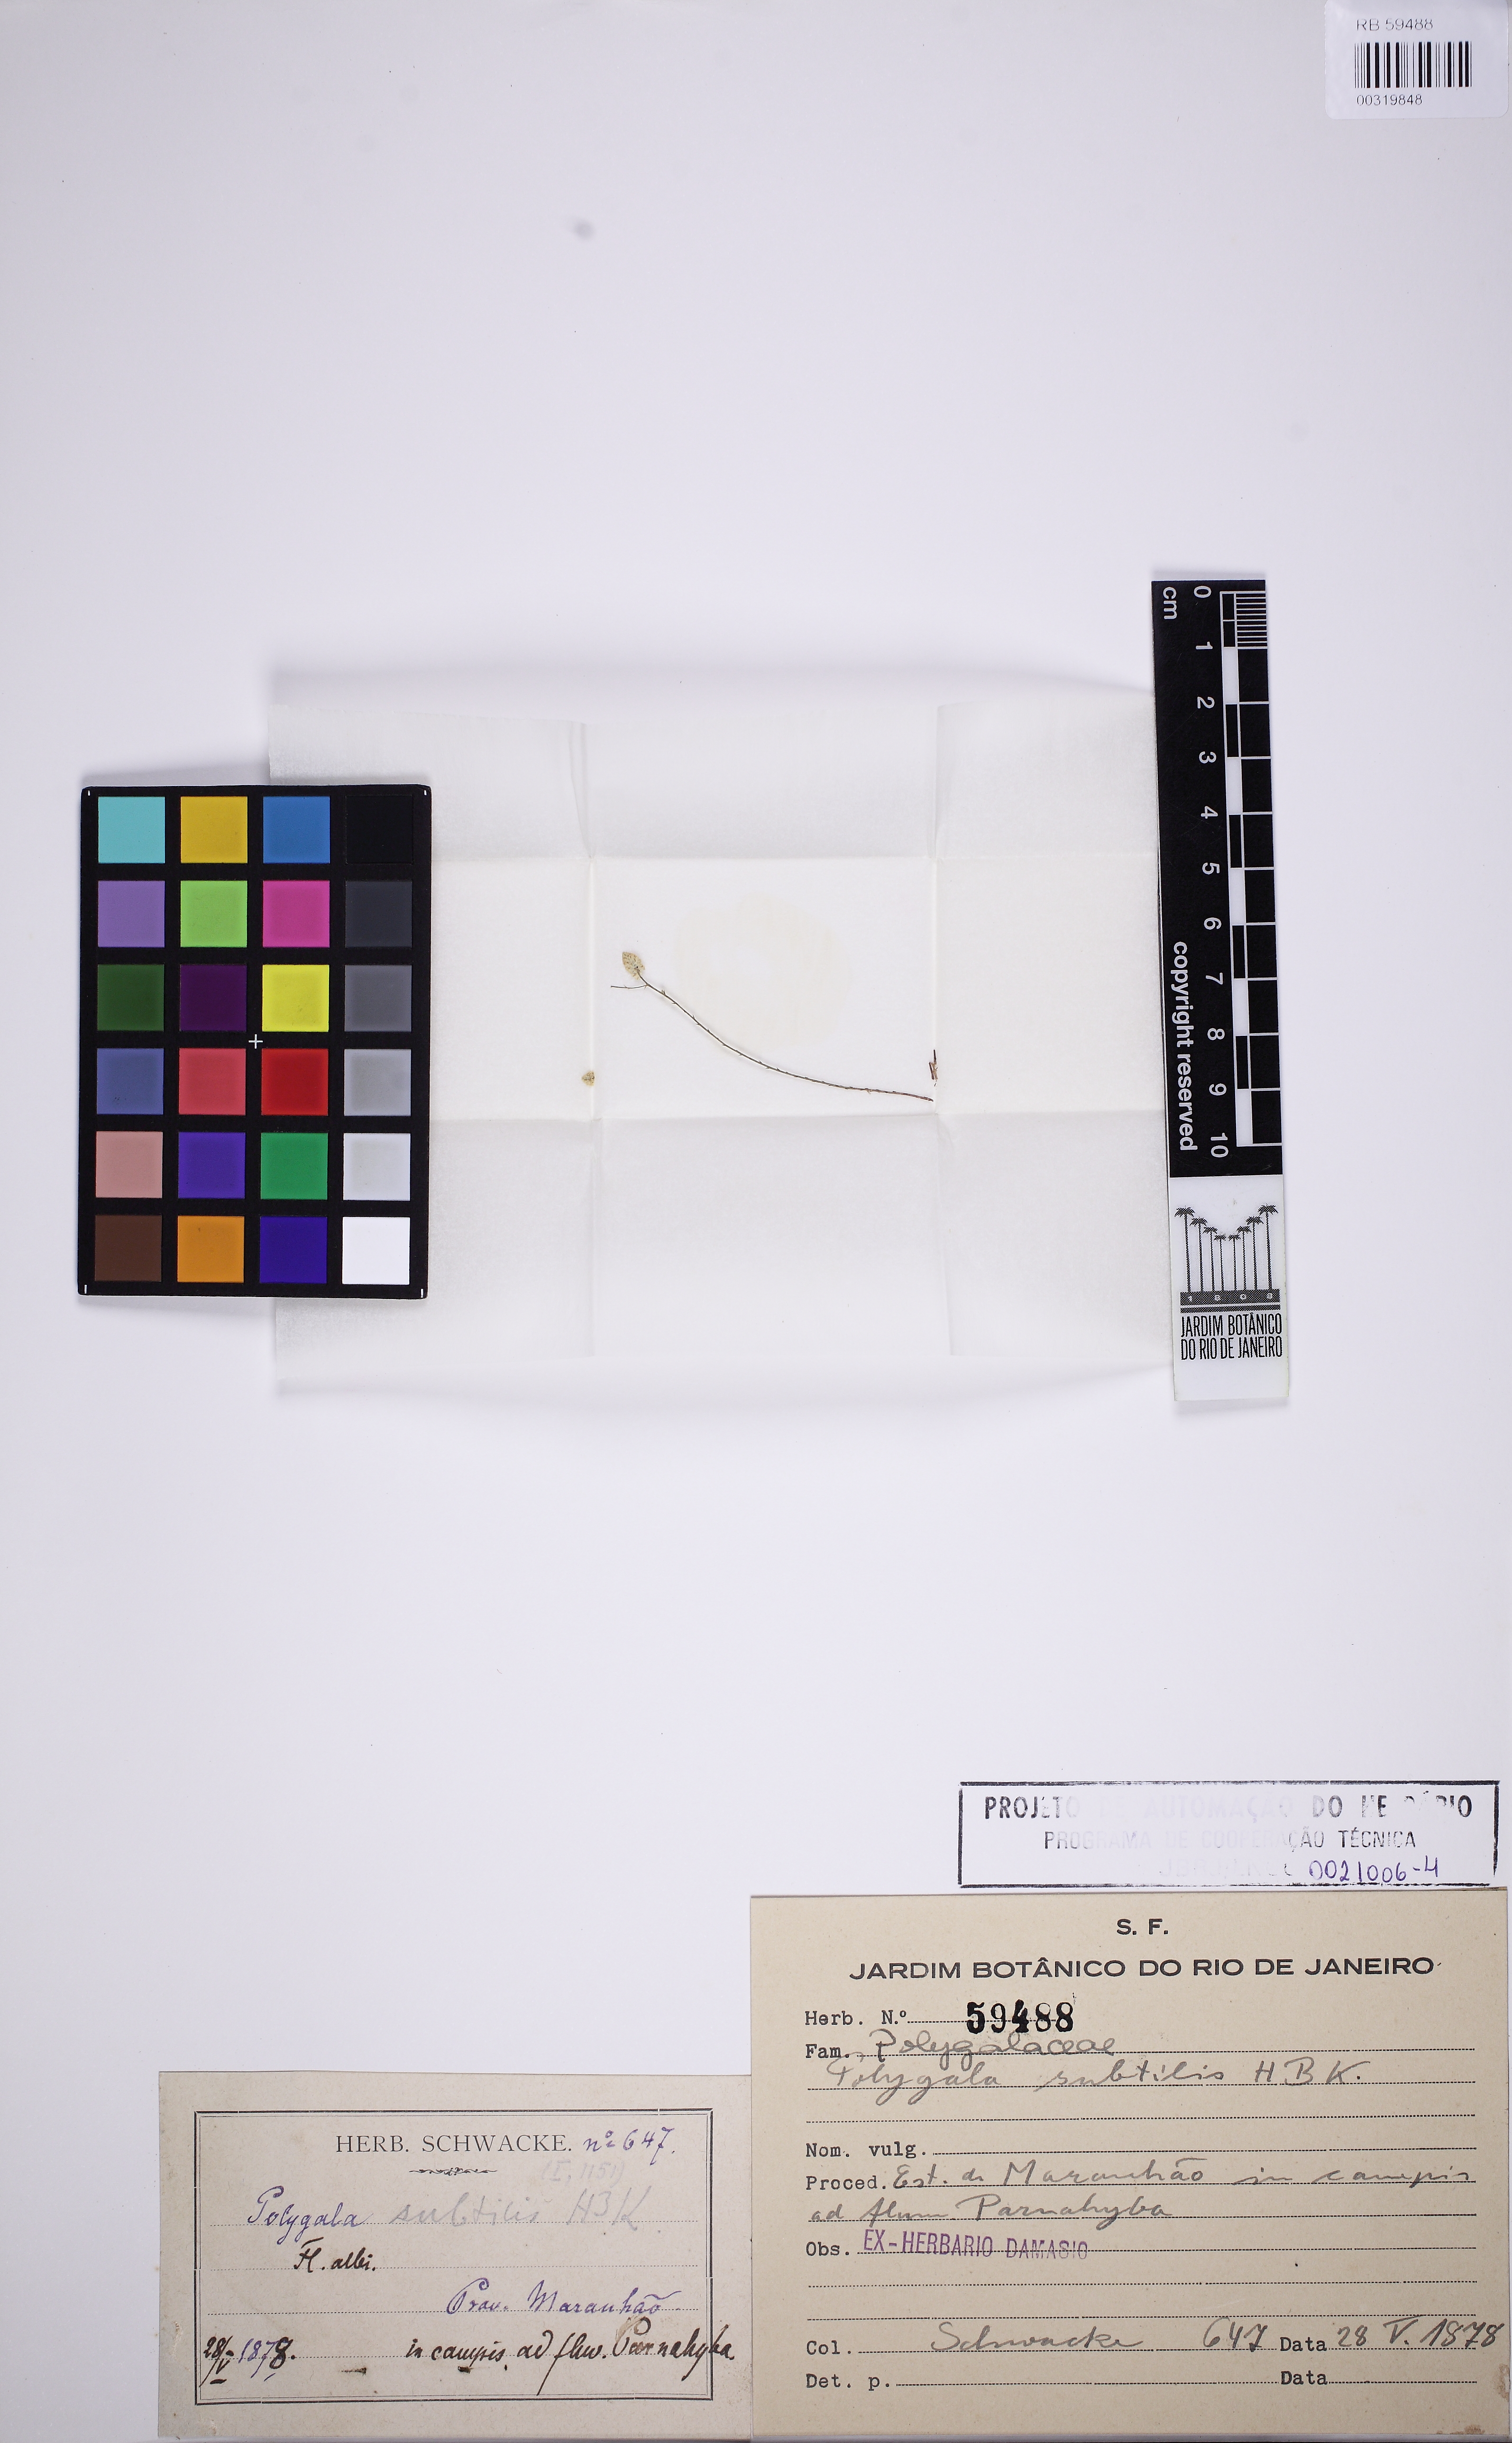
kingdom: Plantae
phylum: Tracheophyta
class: Magnoliopsida
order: Fabales
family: Polygalaceae
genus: Polygala
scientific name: Polygala subtilis
